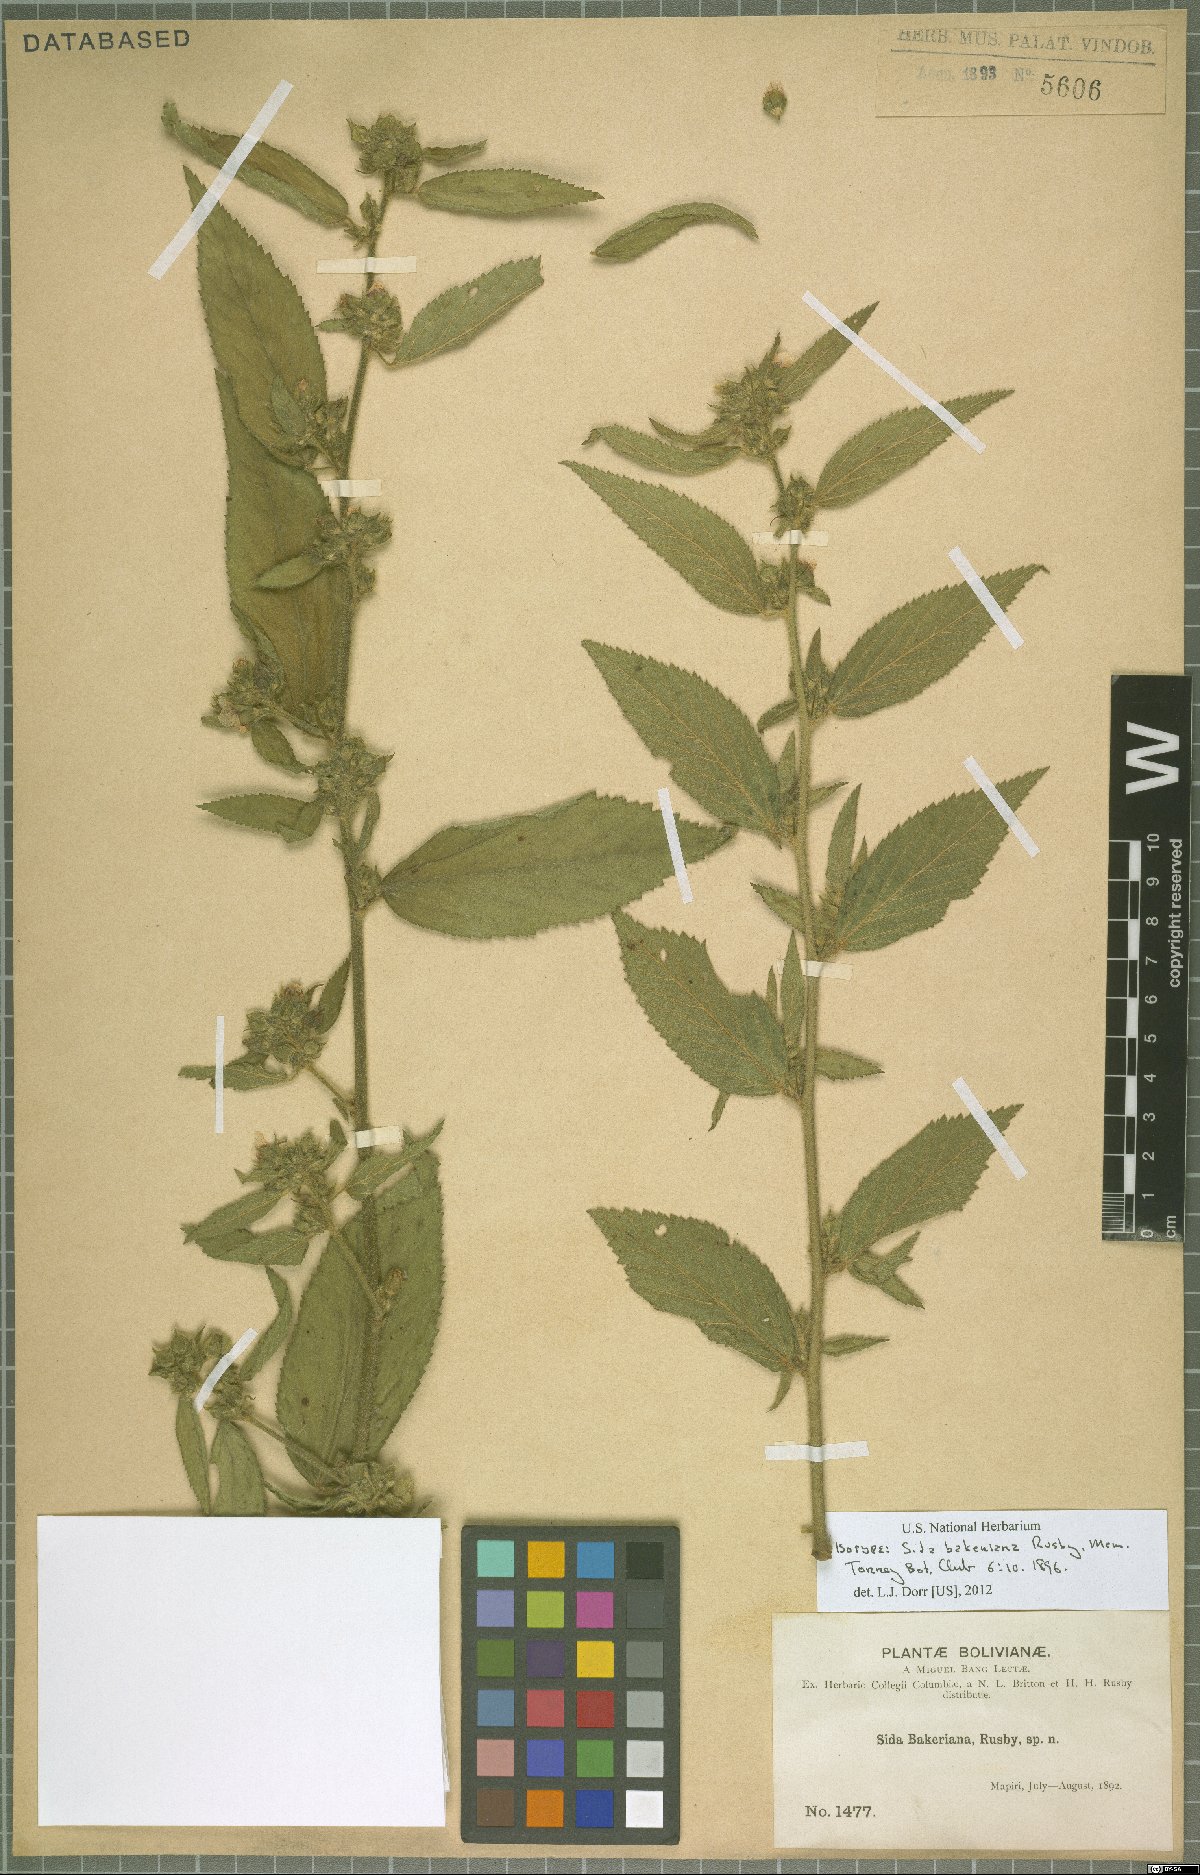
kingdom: Plantae
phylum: Tracheophyta
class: Magnoliopsida
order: Malvales
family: Malvaceae
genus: Sida
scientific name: Sida bakeriana
